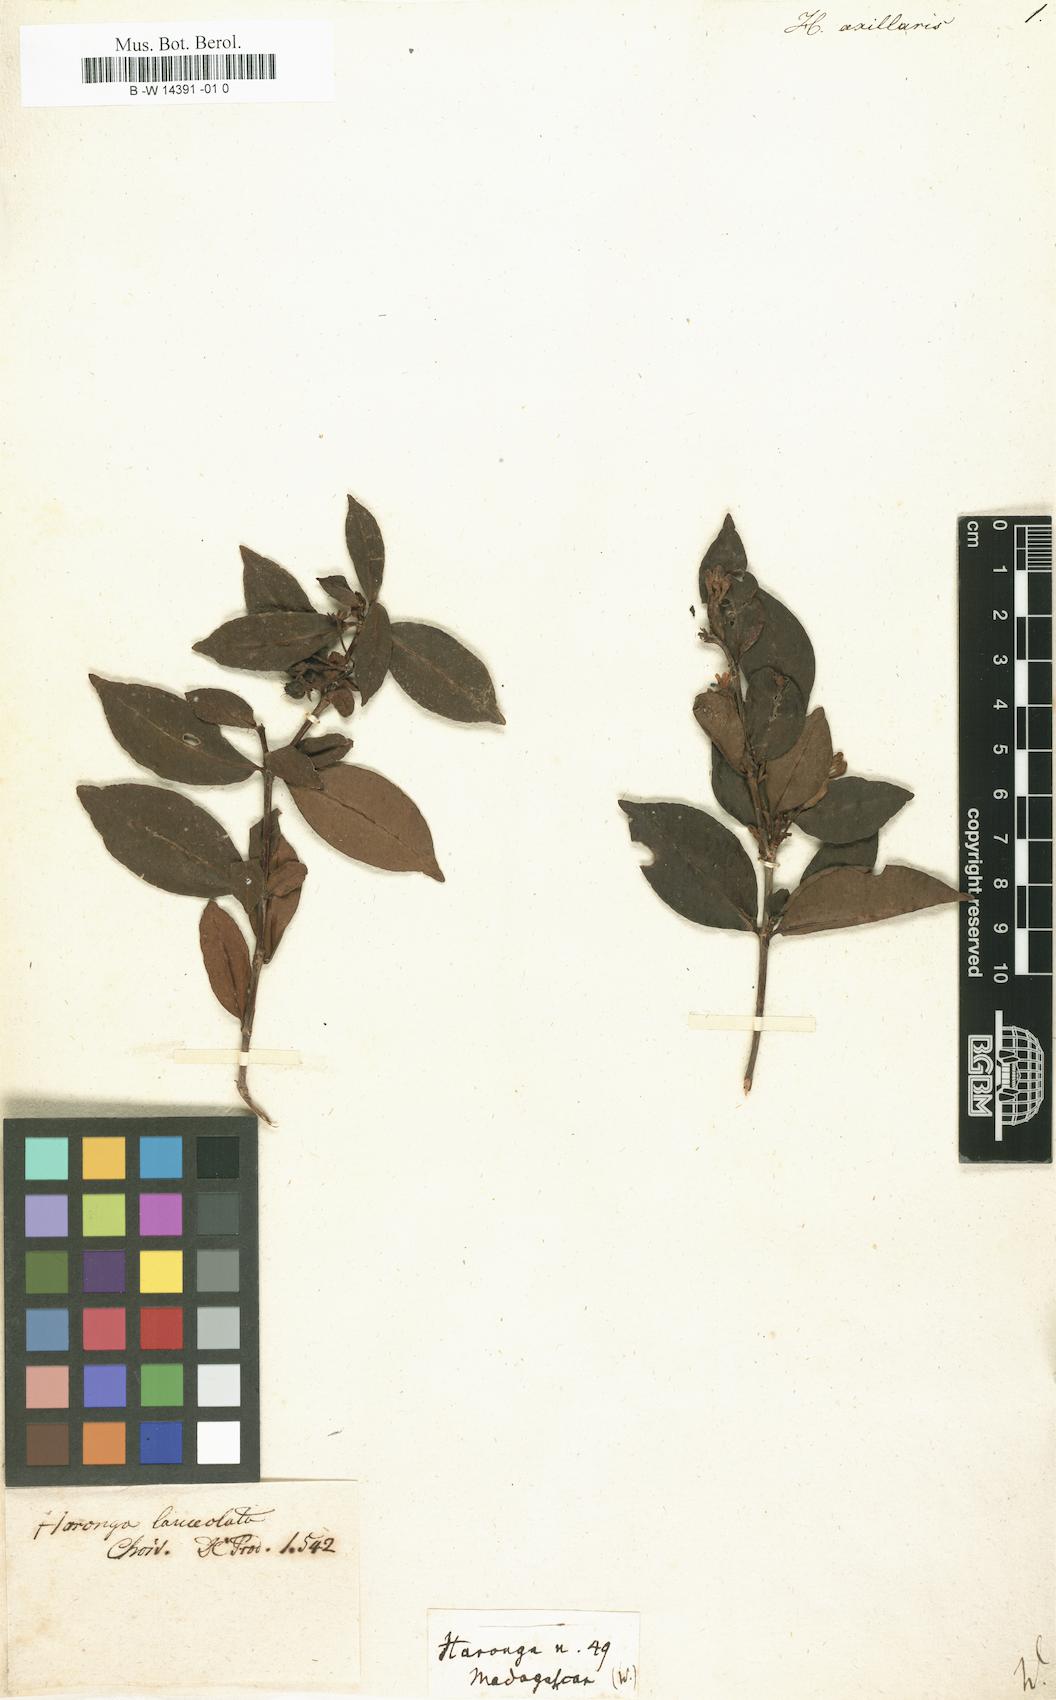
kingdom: Plantae
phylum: Tracheophyta
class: Magnoliopsida
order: Malpighiales
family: Hypericaceae
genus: Psorospermum
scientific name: Psorospermum lanceolatum
